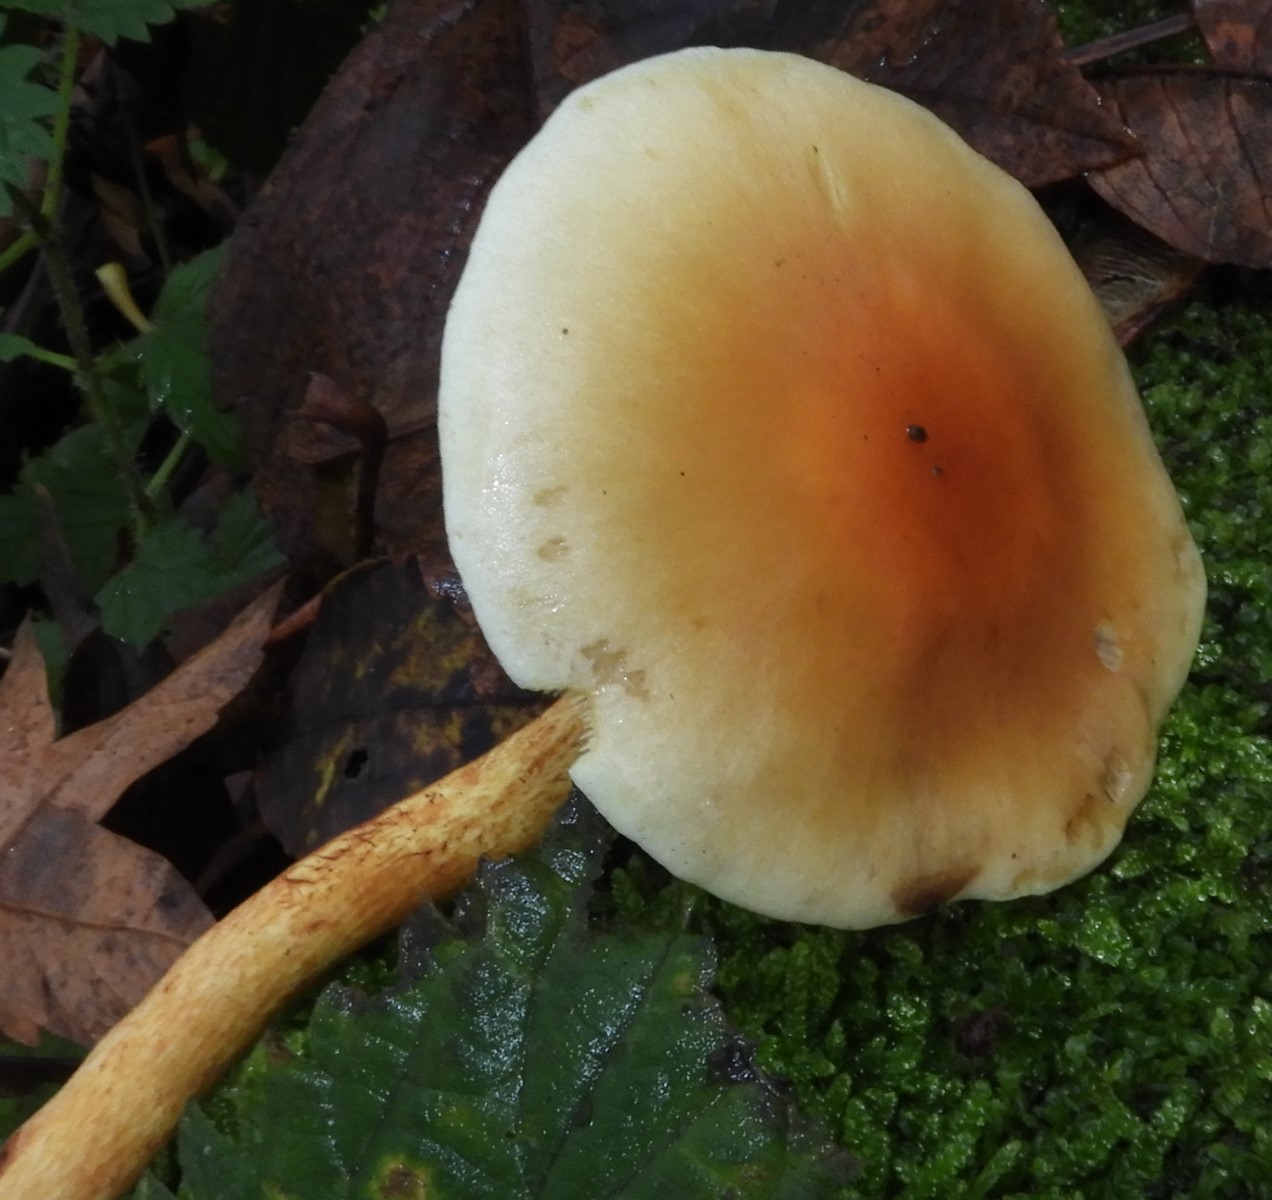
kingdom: Fungi
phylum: Basidiomycota
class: Agaricomycetes
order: Agaricales
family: Strophariaceae
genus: Hypholoma
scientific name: Hypholoma fasciculare
